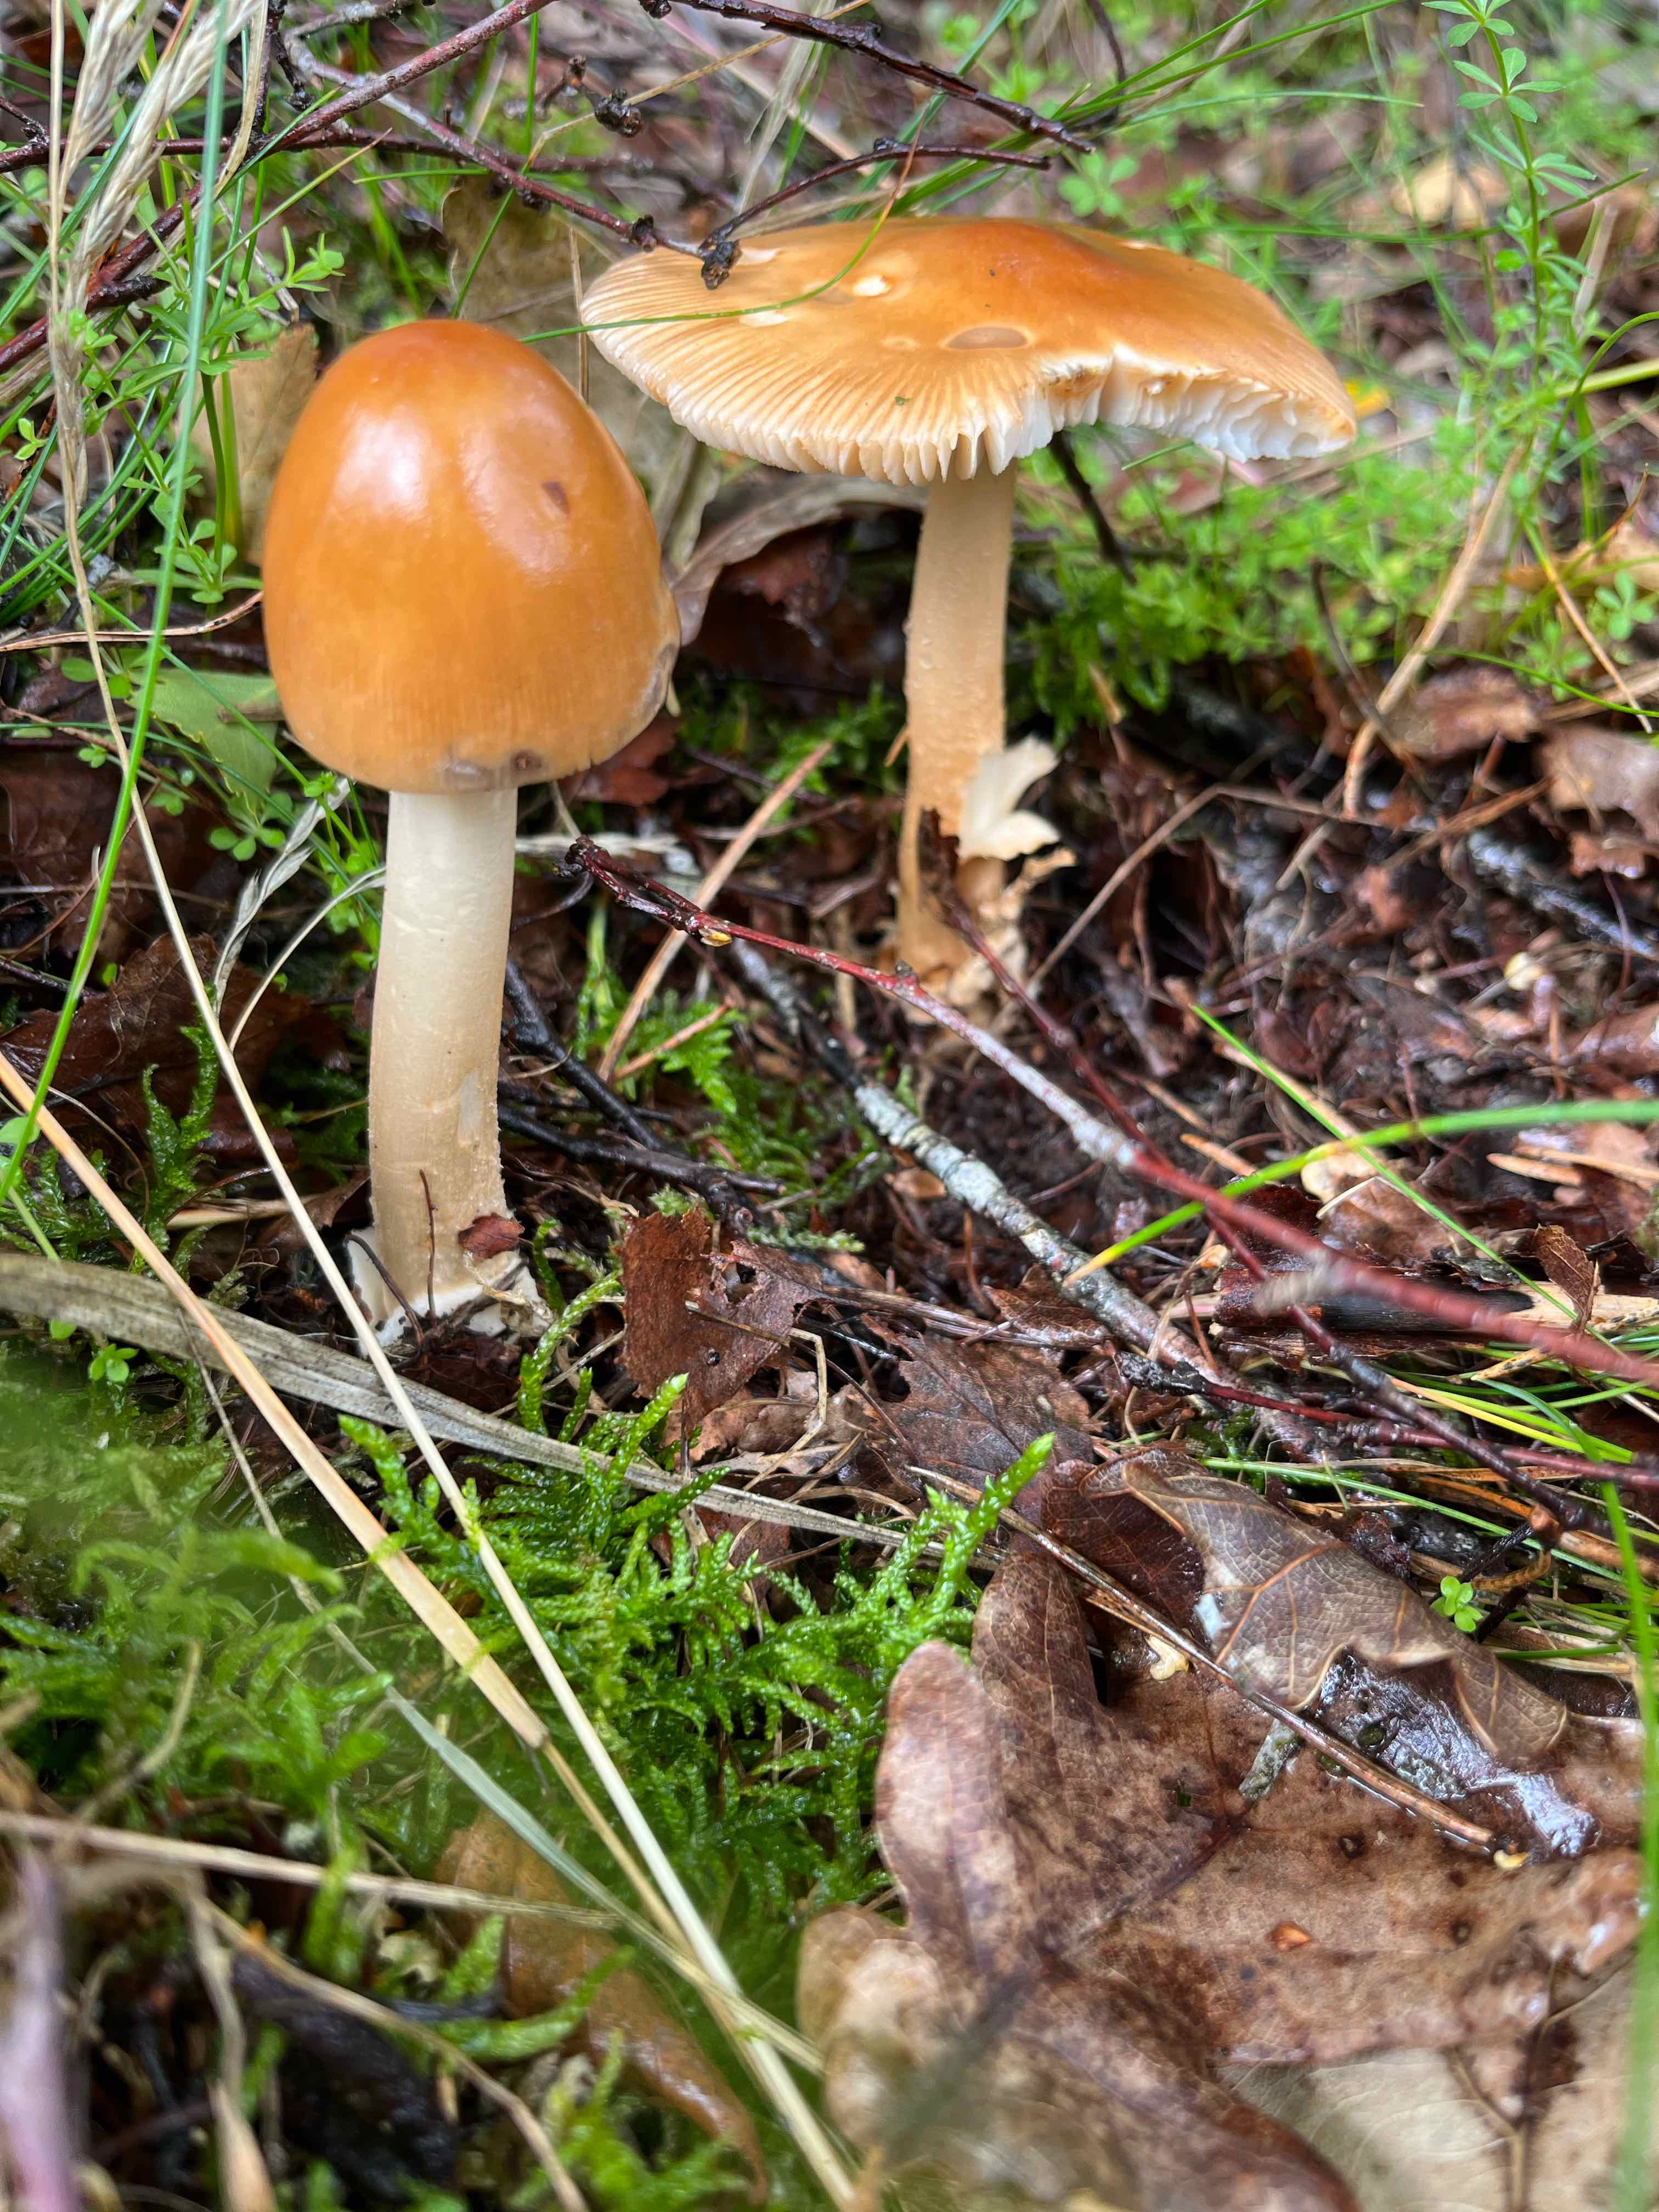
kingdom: Fungi
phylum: Basidiomycota
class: Agaricomycetes
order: Agaricales
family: Amanitaceae
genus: Amanita
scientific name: Amanita fulva
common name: brun kam-fluesvamp
